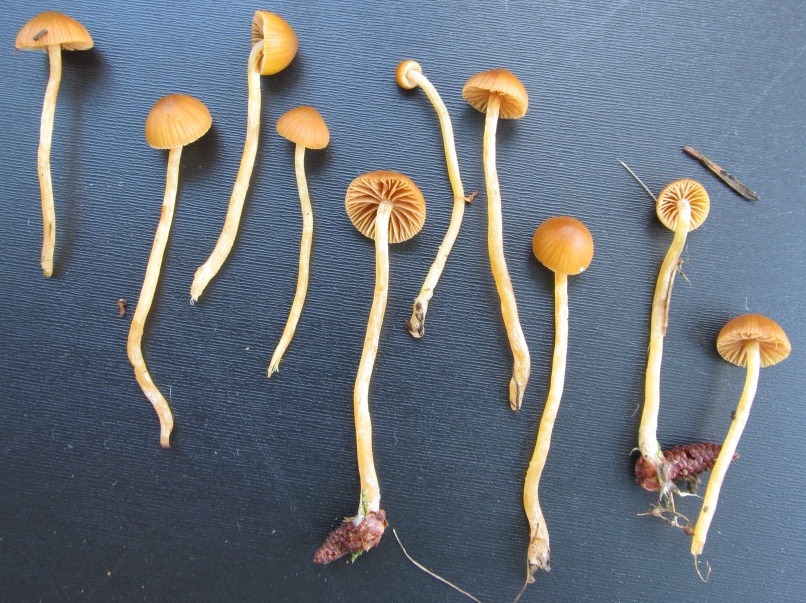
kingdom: Fungi
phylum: Basidiomycota
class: Agaricomycetes
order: Agaricales
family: Hymenogastraceae
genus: Galerina
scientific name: Galerina pumila
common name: honninggul hjelmhat
